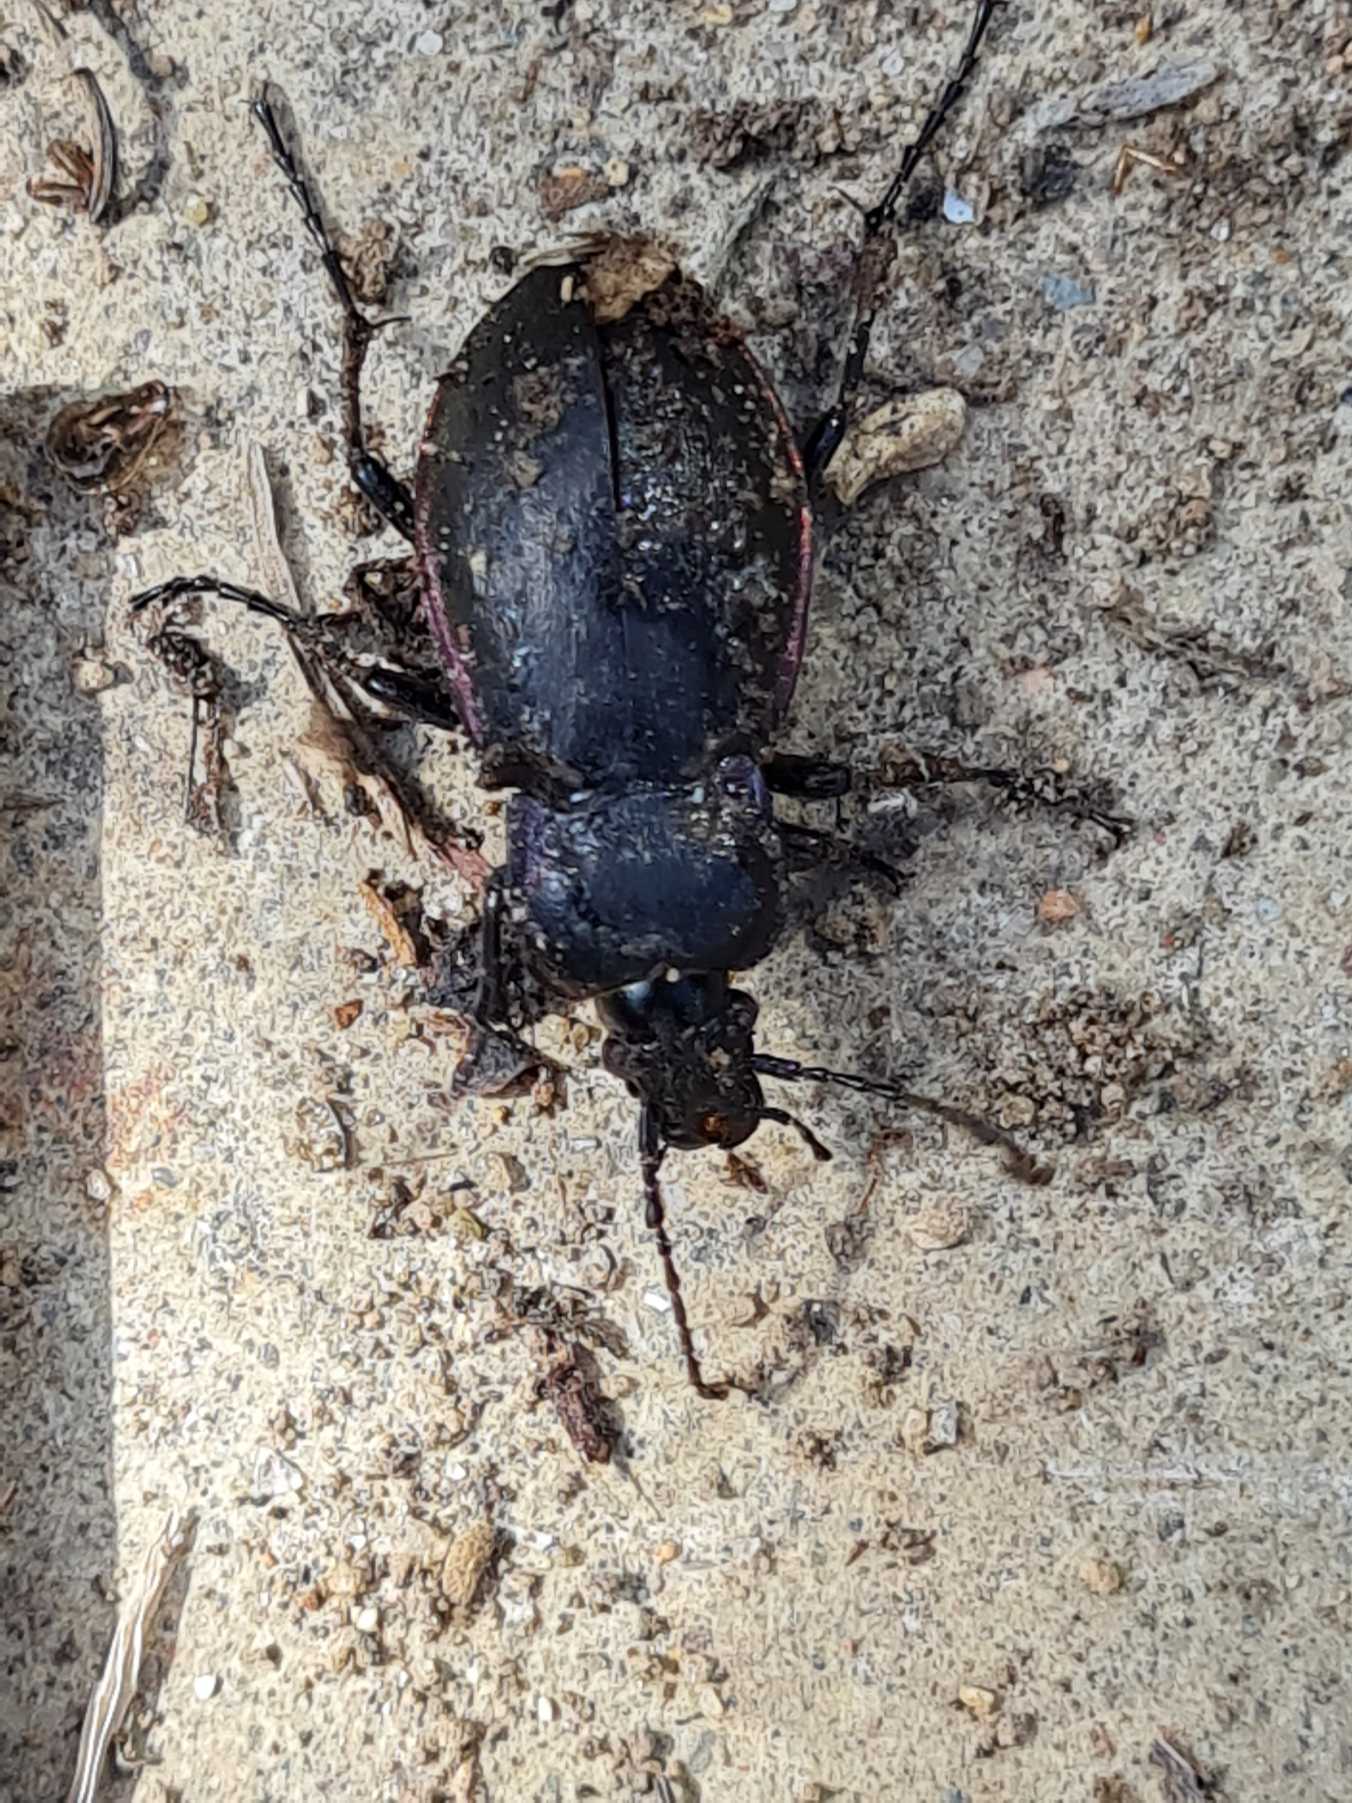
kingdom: Animalia
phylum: Arthropoda
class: Insecta
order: Coleoptera
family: Carabidae
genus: Carabus
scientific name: Carabus nemoralis
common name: Kratløber
